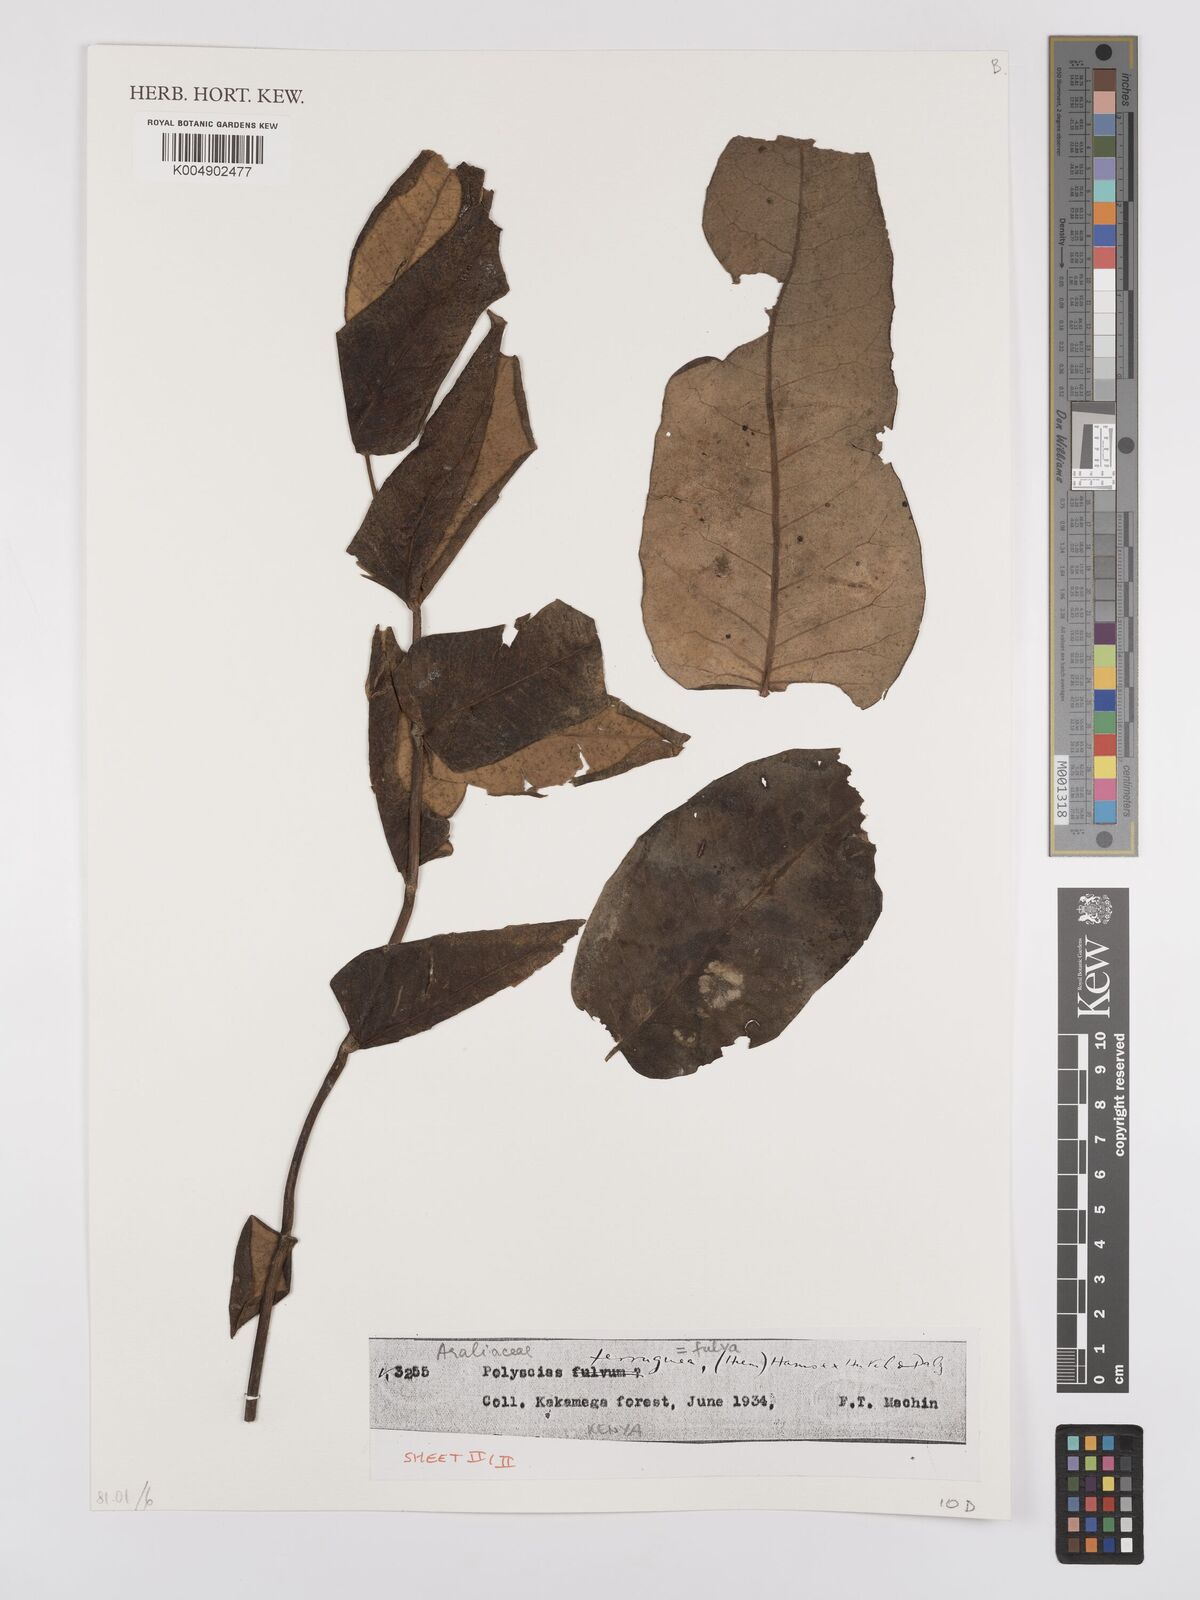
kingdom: Plantae
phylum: Tracheophyta
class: Magnoliopsida
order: Apiales
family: Araliaceae
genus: Polyscias
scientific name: Polyscias fulva
